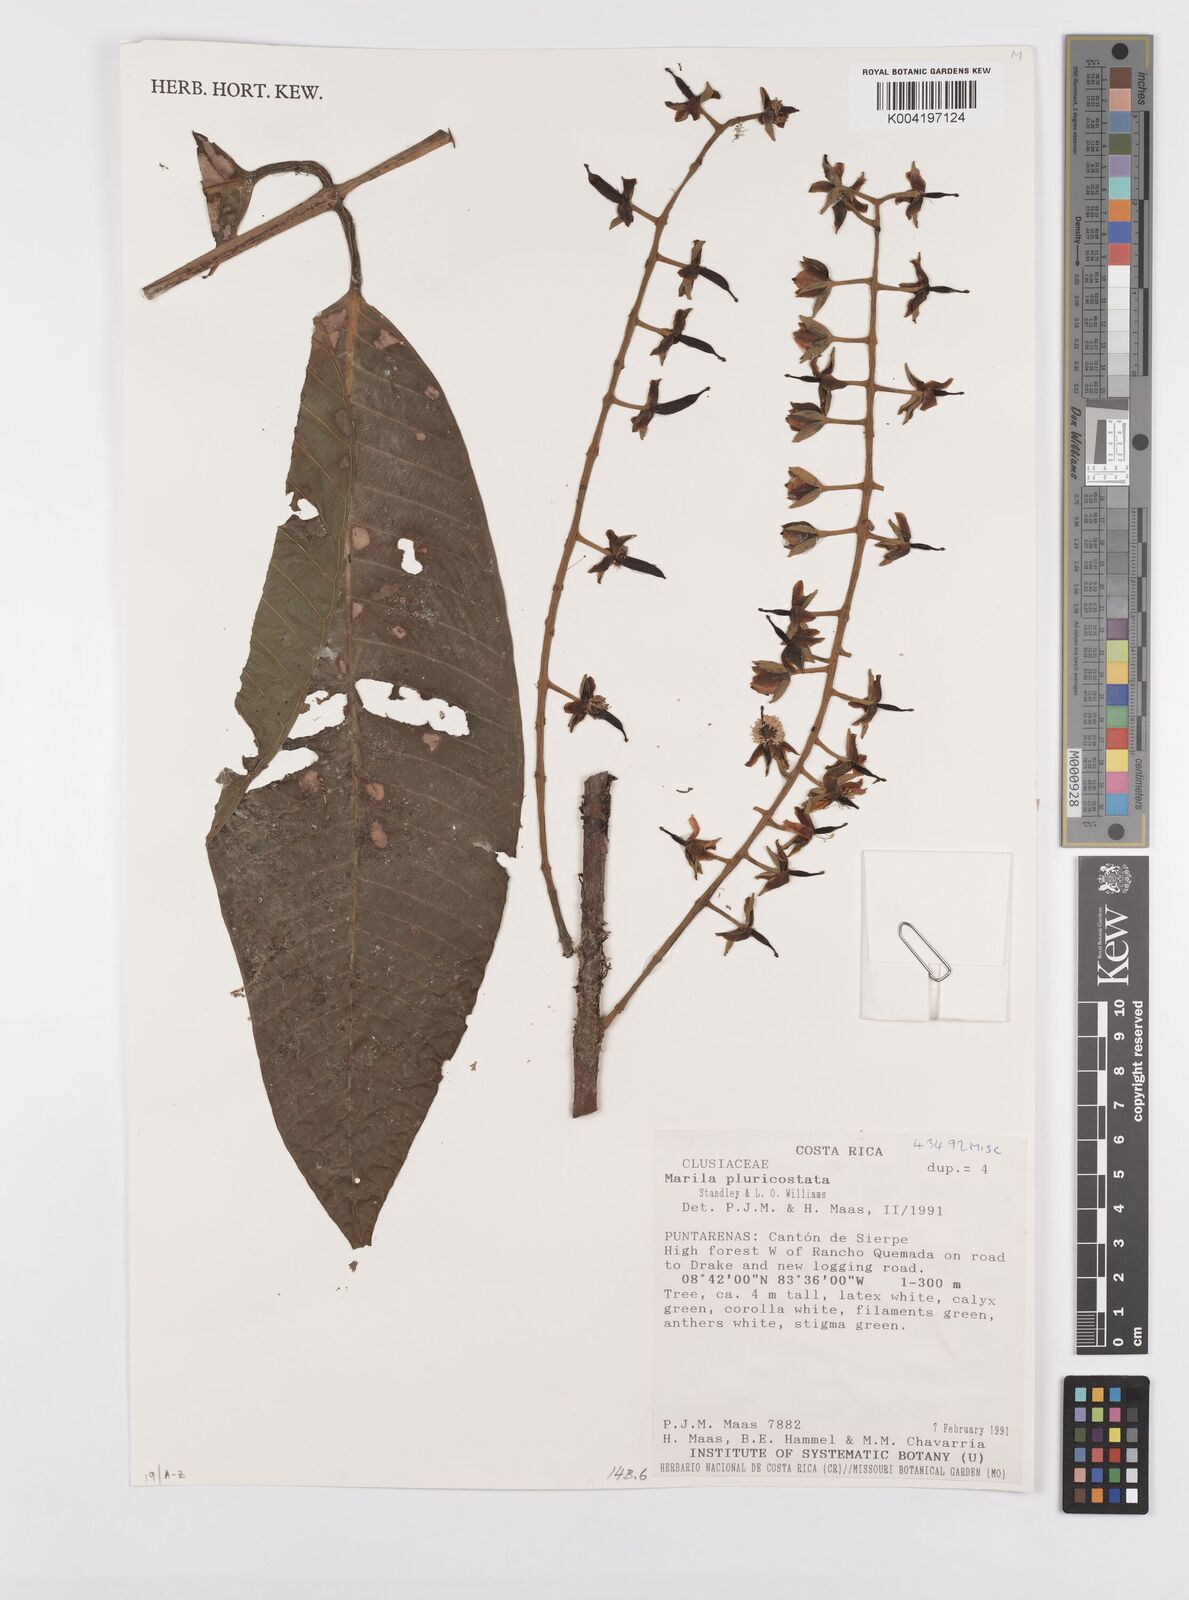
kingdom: Plantae
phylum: Tracheophyta
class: Magnoliopsida
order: Malpighiales
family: Calophyllaceae
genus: Marila
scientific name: Marila podantha
